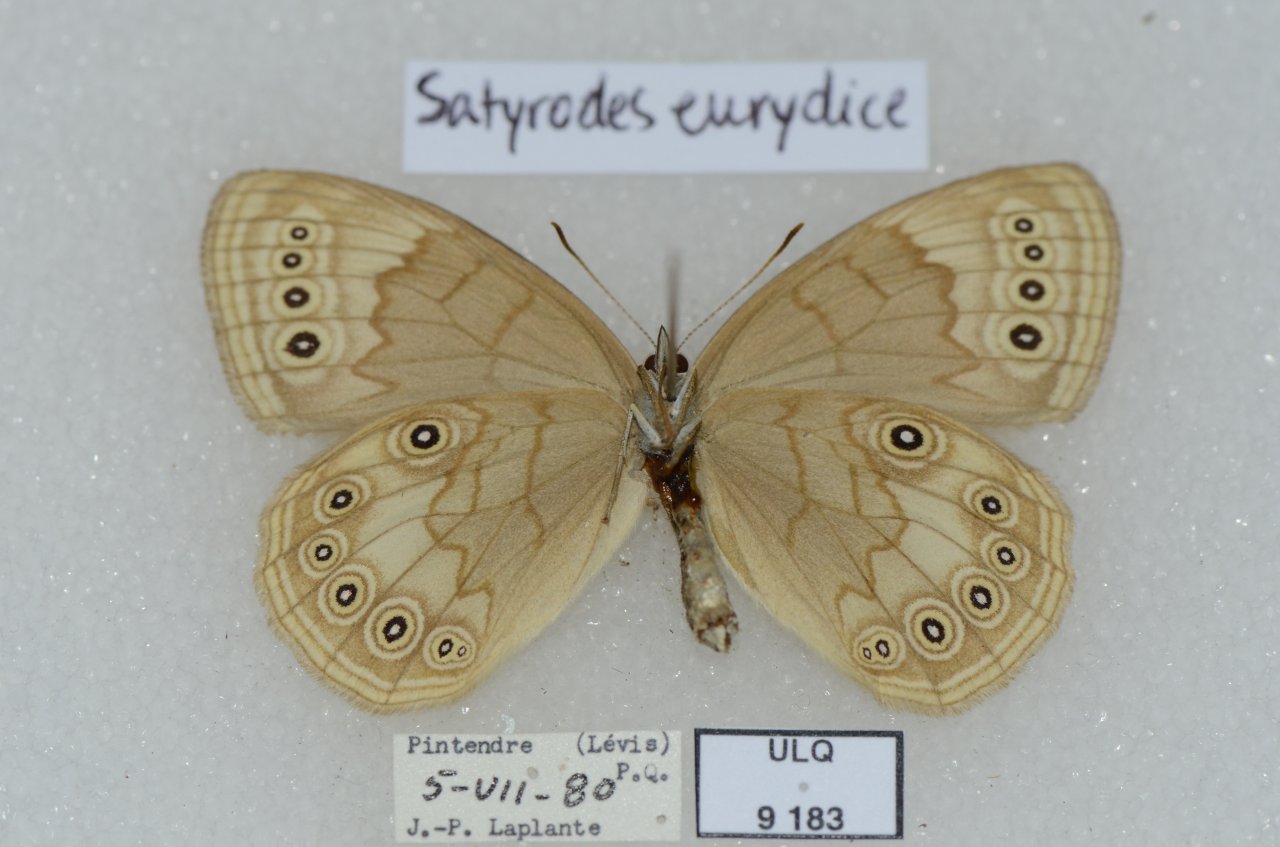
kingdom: Animalia
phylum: Arthropoda
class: Insecta
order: Lepidoptera
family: Nymphalidae
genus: Lethe
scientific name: Lethe eurydice
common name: Eyed Brown
